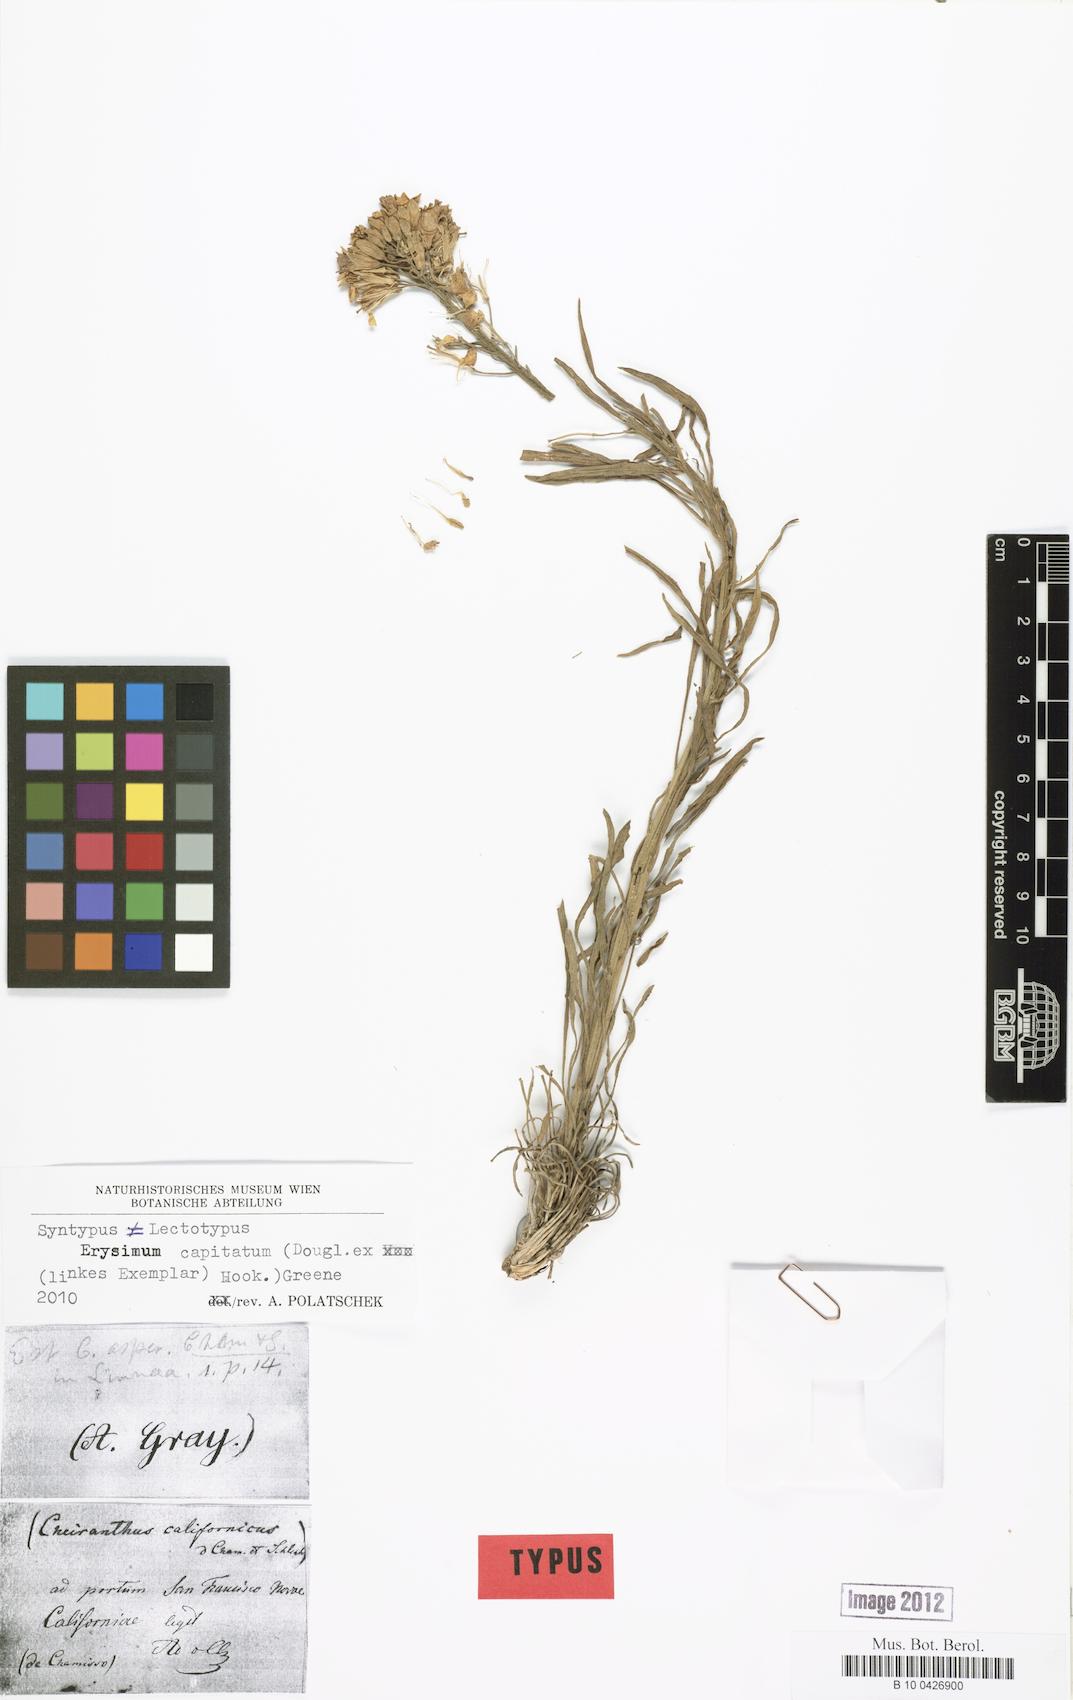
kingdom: Plantae
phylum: Tracheophyta
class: Magnoliopsida
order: Brassicales
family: Brassicaceae
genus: Erysimum
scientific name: Erysimum capitatum
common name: Western wallflower
